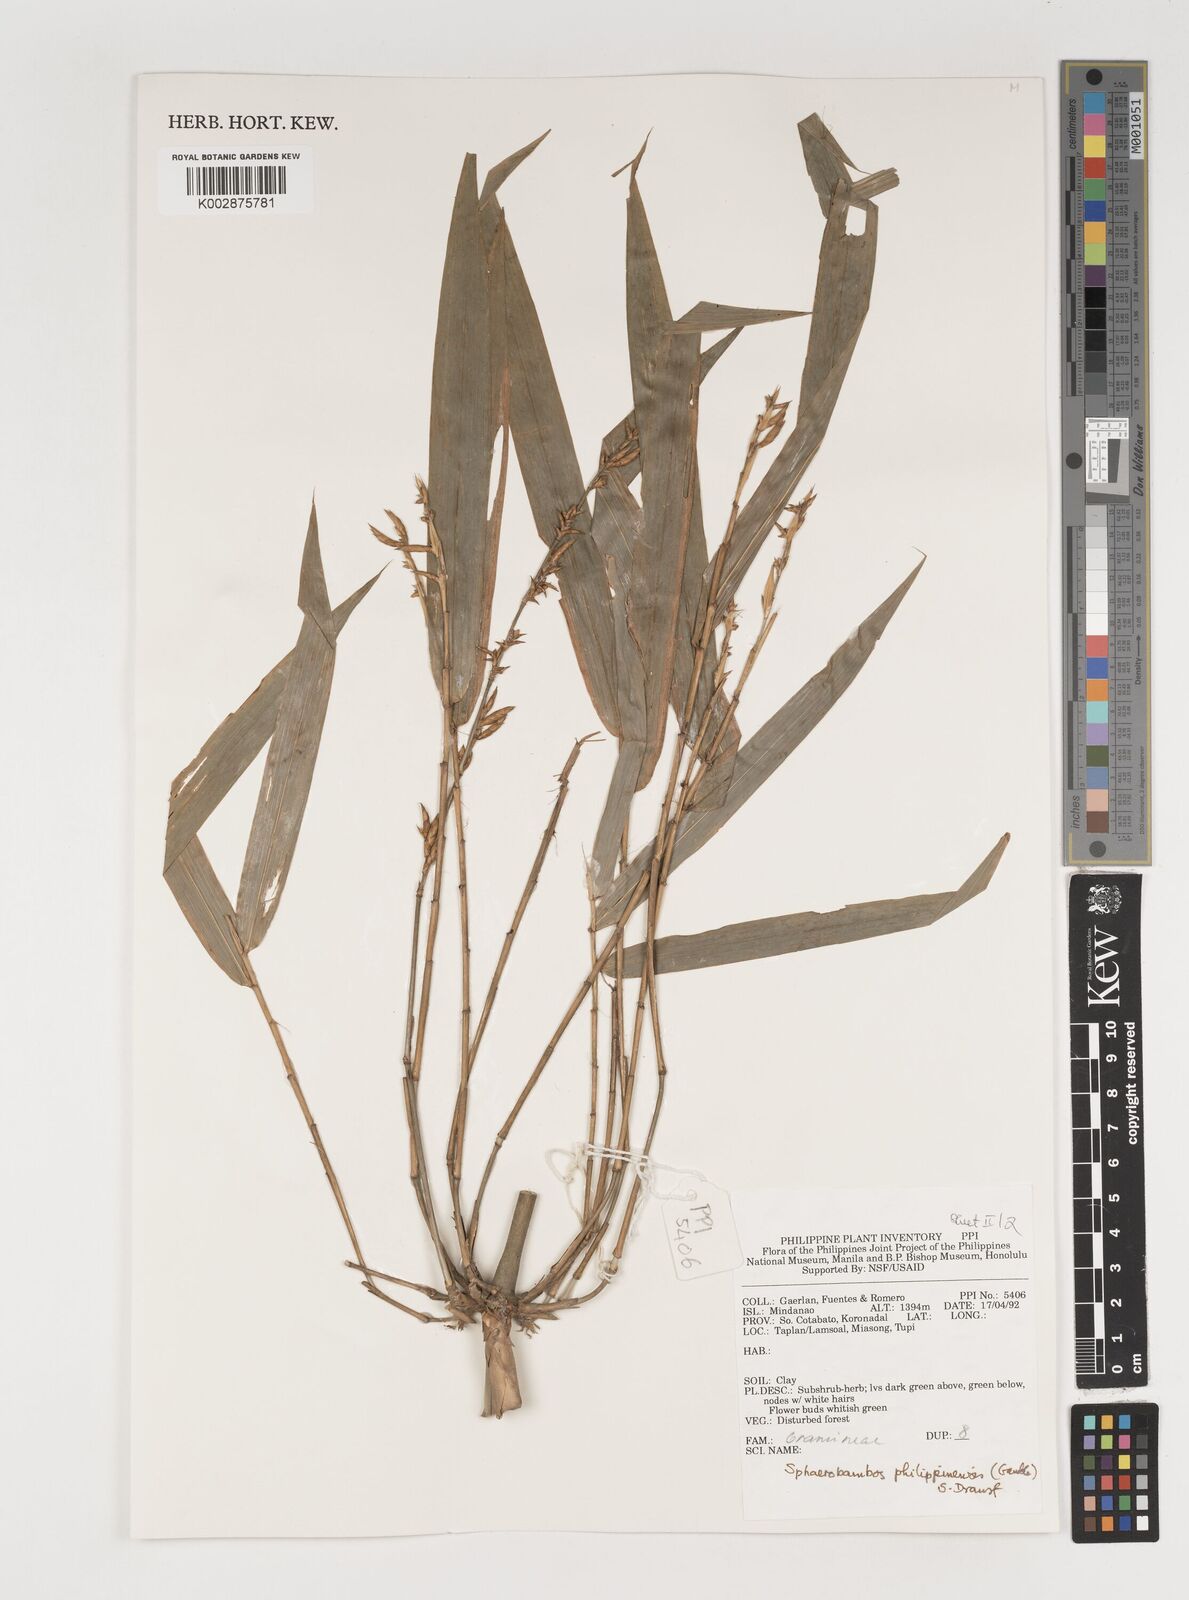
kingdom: Plantae
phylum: Tracheophyta
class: Liliopsida
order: Poales
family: Poaceae
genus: Sphaerobambos
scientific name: Sphaerobambos philippinensis
